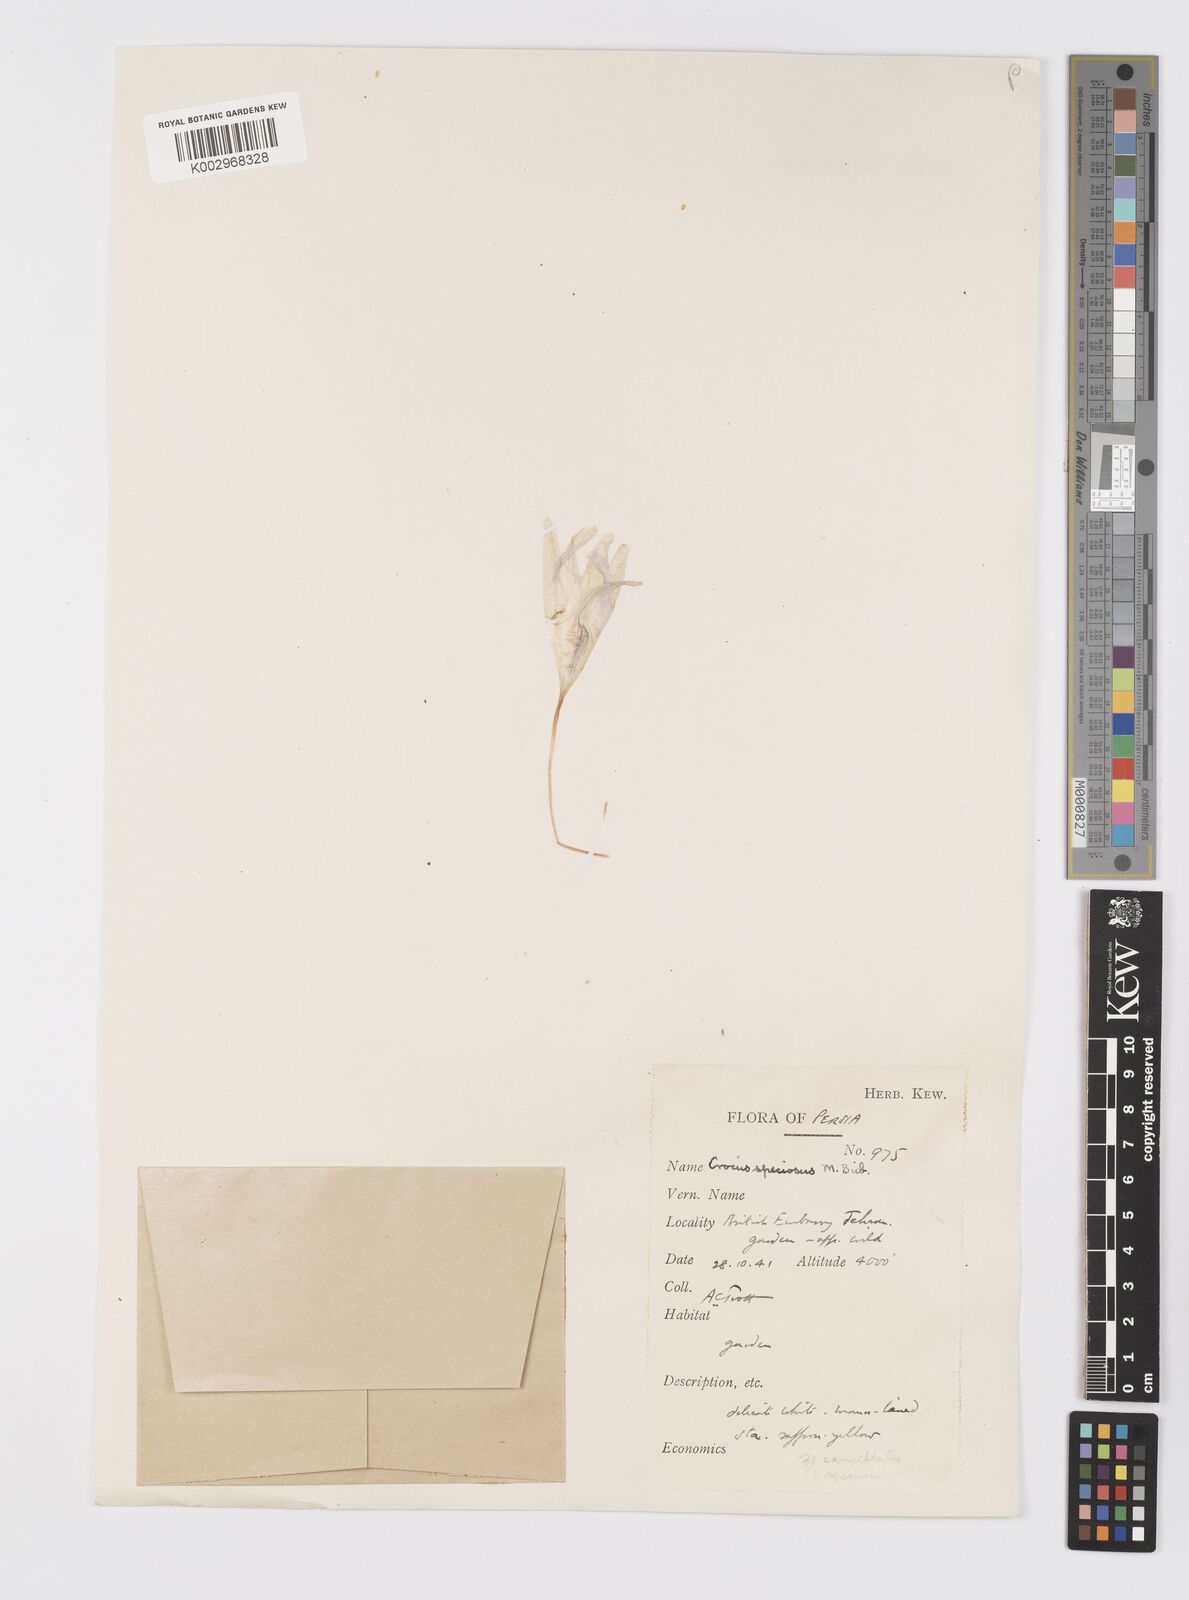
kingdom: Plantae
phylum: Tracheophyta
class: Liliopsida
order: Asparagales
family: Iridaceae
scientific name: Iridaceae
